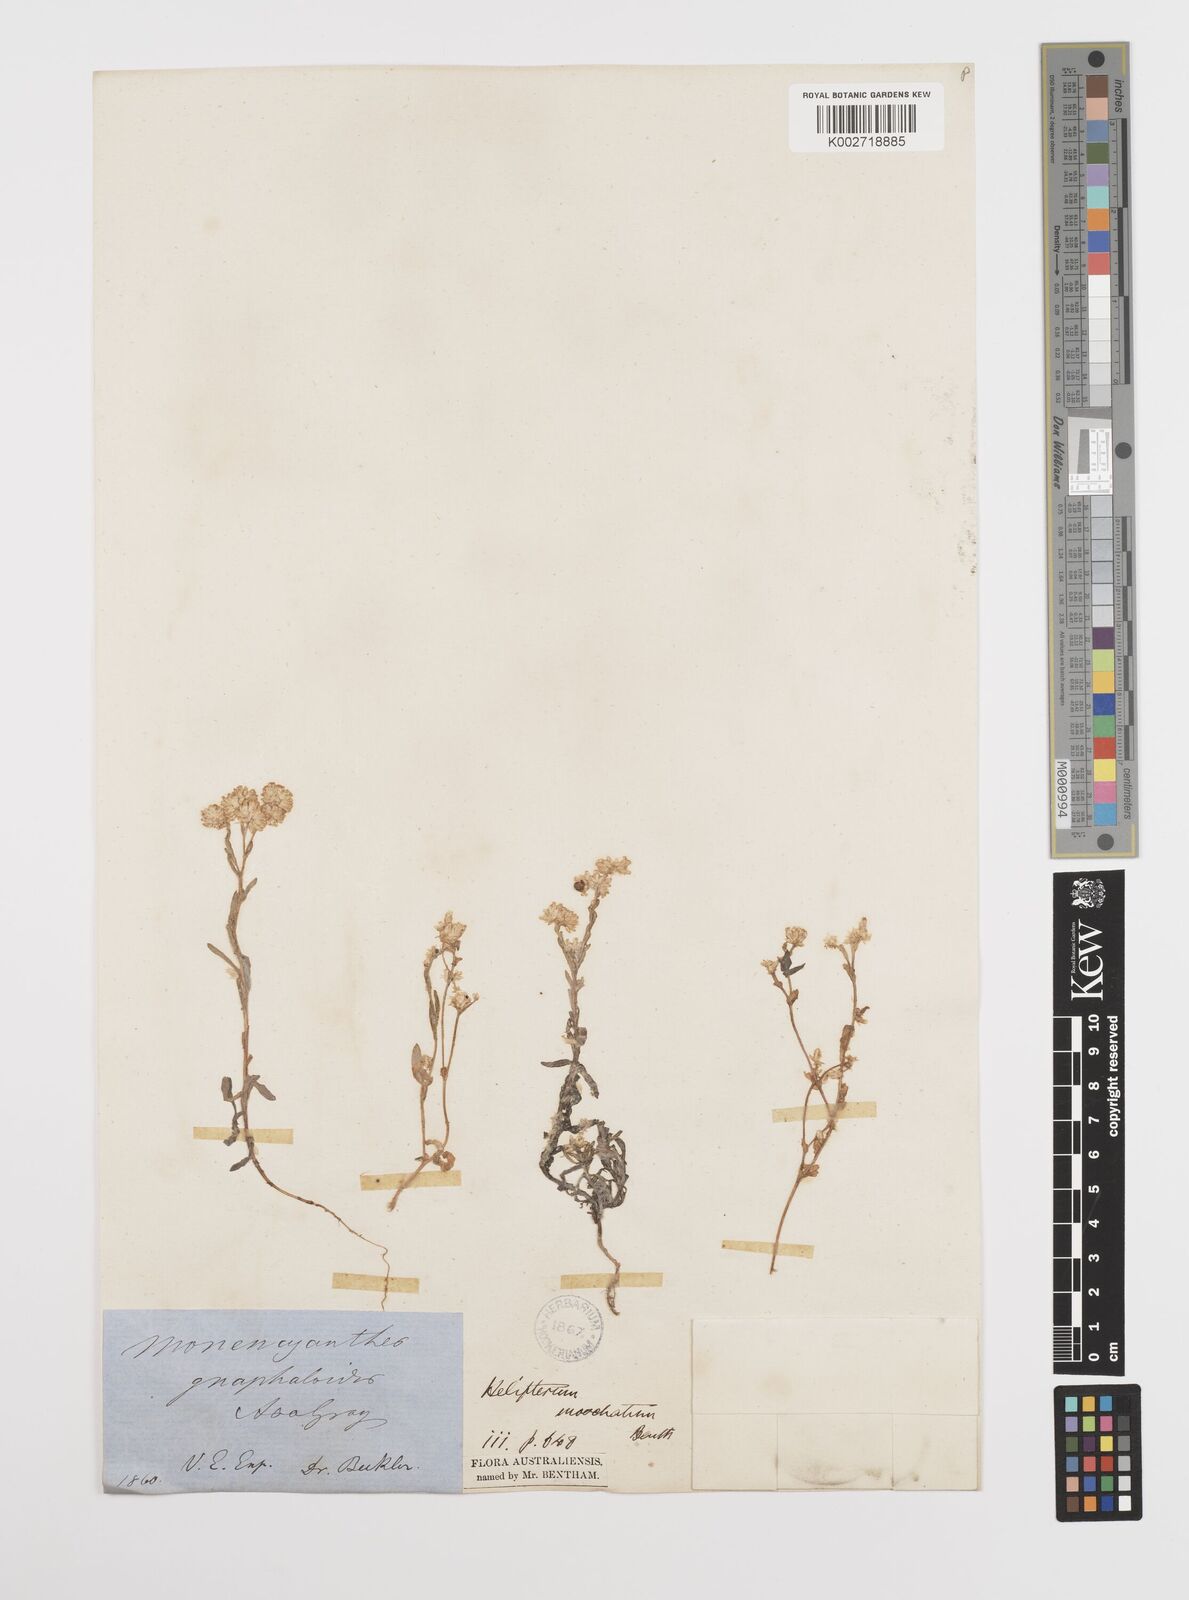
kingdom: Plantae
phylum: Tracheophyta
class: Magnoliopsida
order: Asterales
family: Asteraceae
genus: Rhodanthe
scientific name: Rhodanthe moschata
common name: Musk sunray
